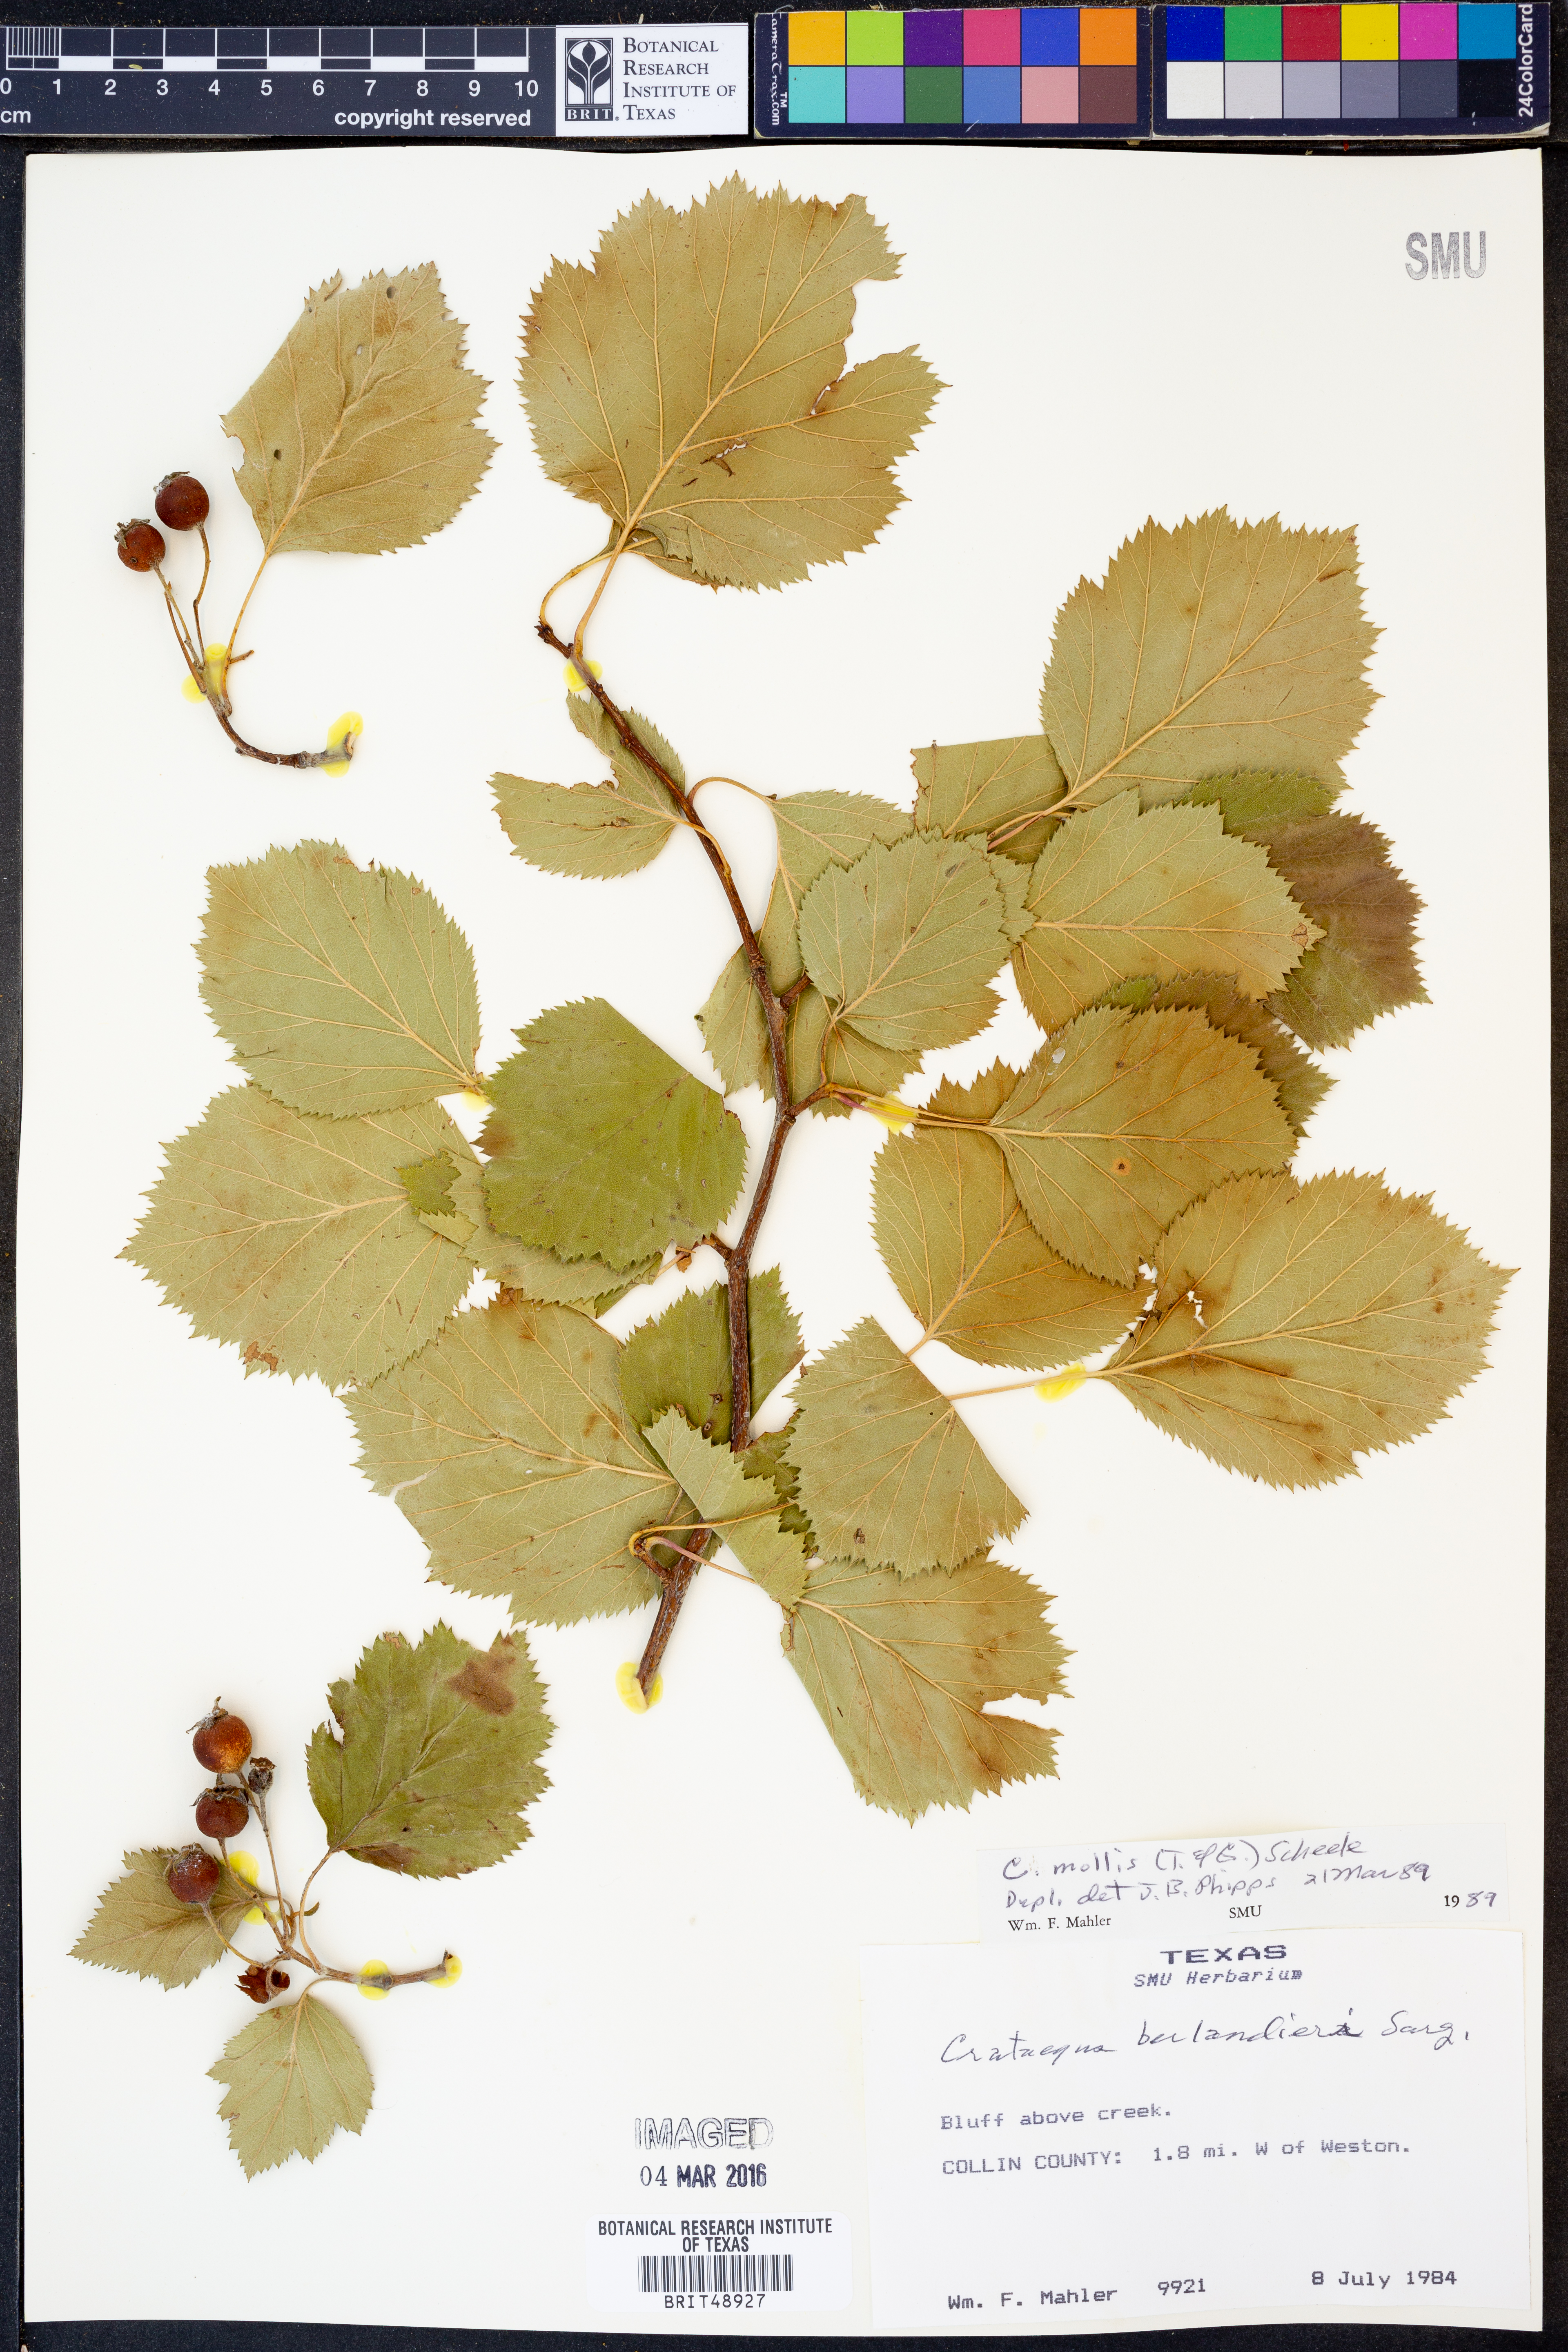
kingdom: Plantae
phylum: Tracheophyta
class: Magnoliopsida
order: Rosales
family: Rosaceae
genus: Crataegus
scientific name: Crataegus mollis
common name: Downy hawthorn
